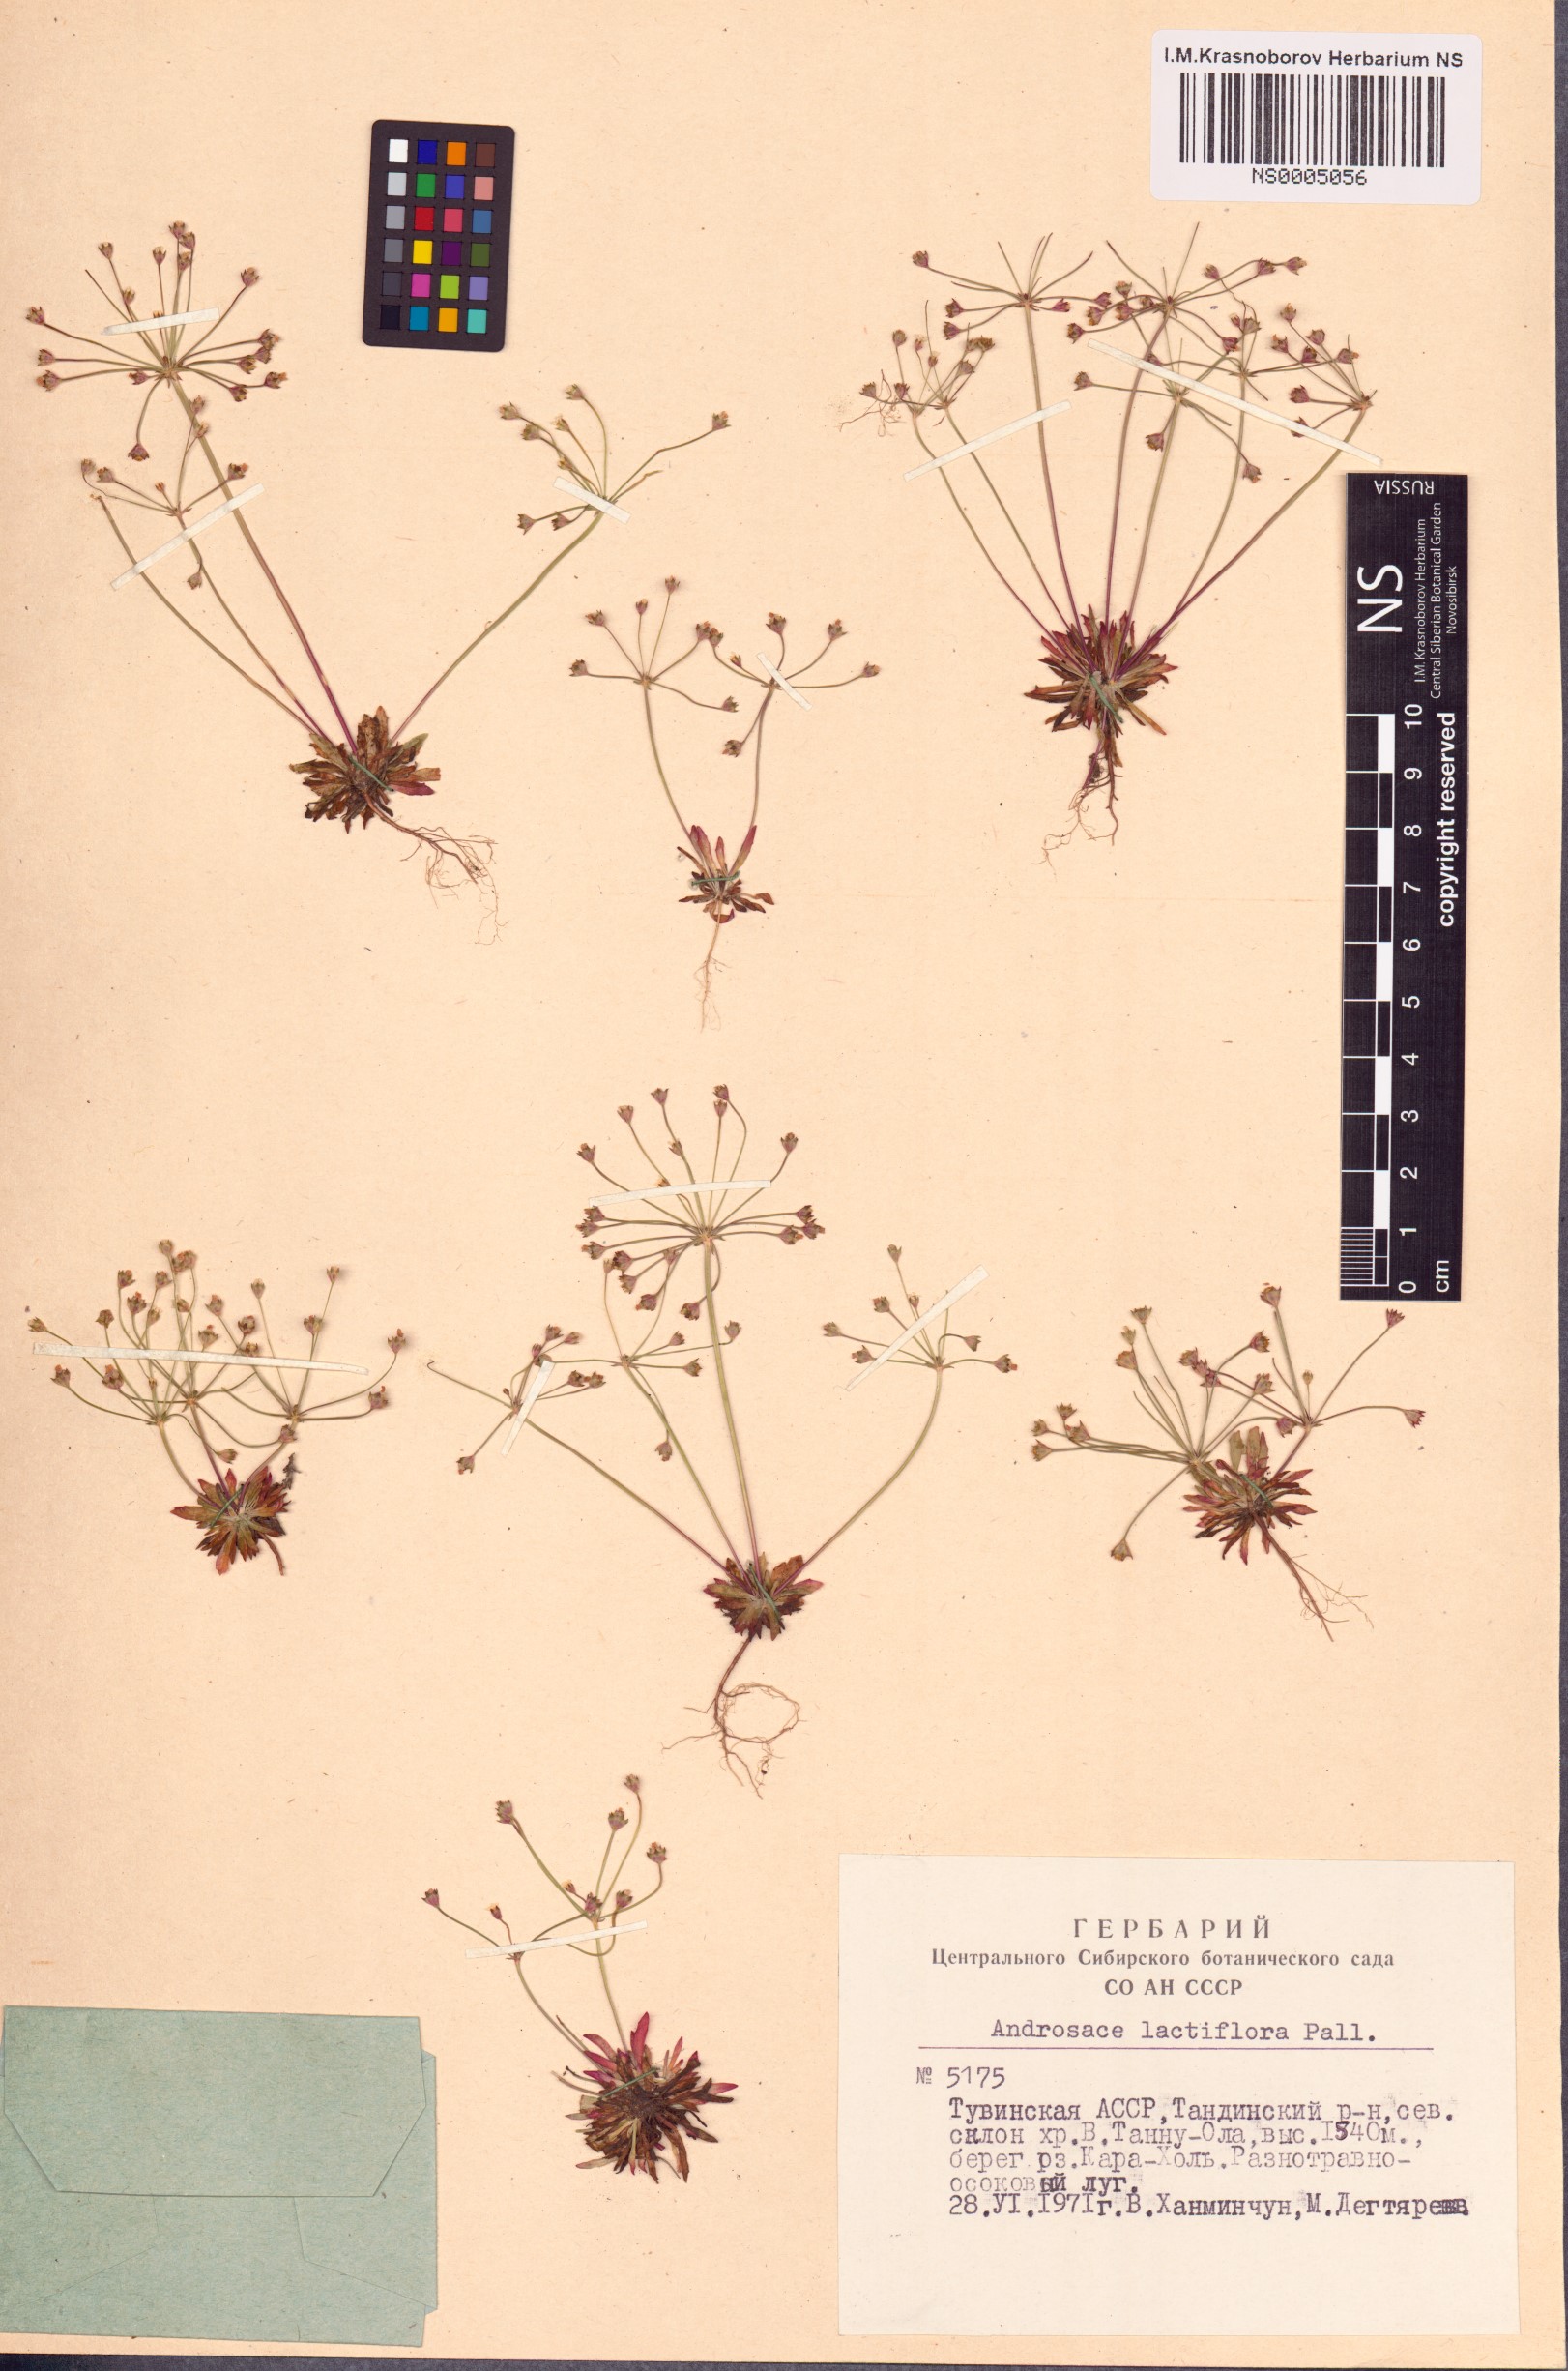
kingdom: Plantae
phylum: Tracheophyta
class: Magnoliopsida
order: Ericales
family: Primulaceae
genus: Androsace
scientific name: Androsace lactiflora
